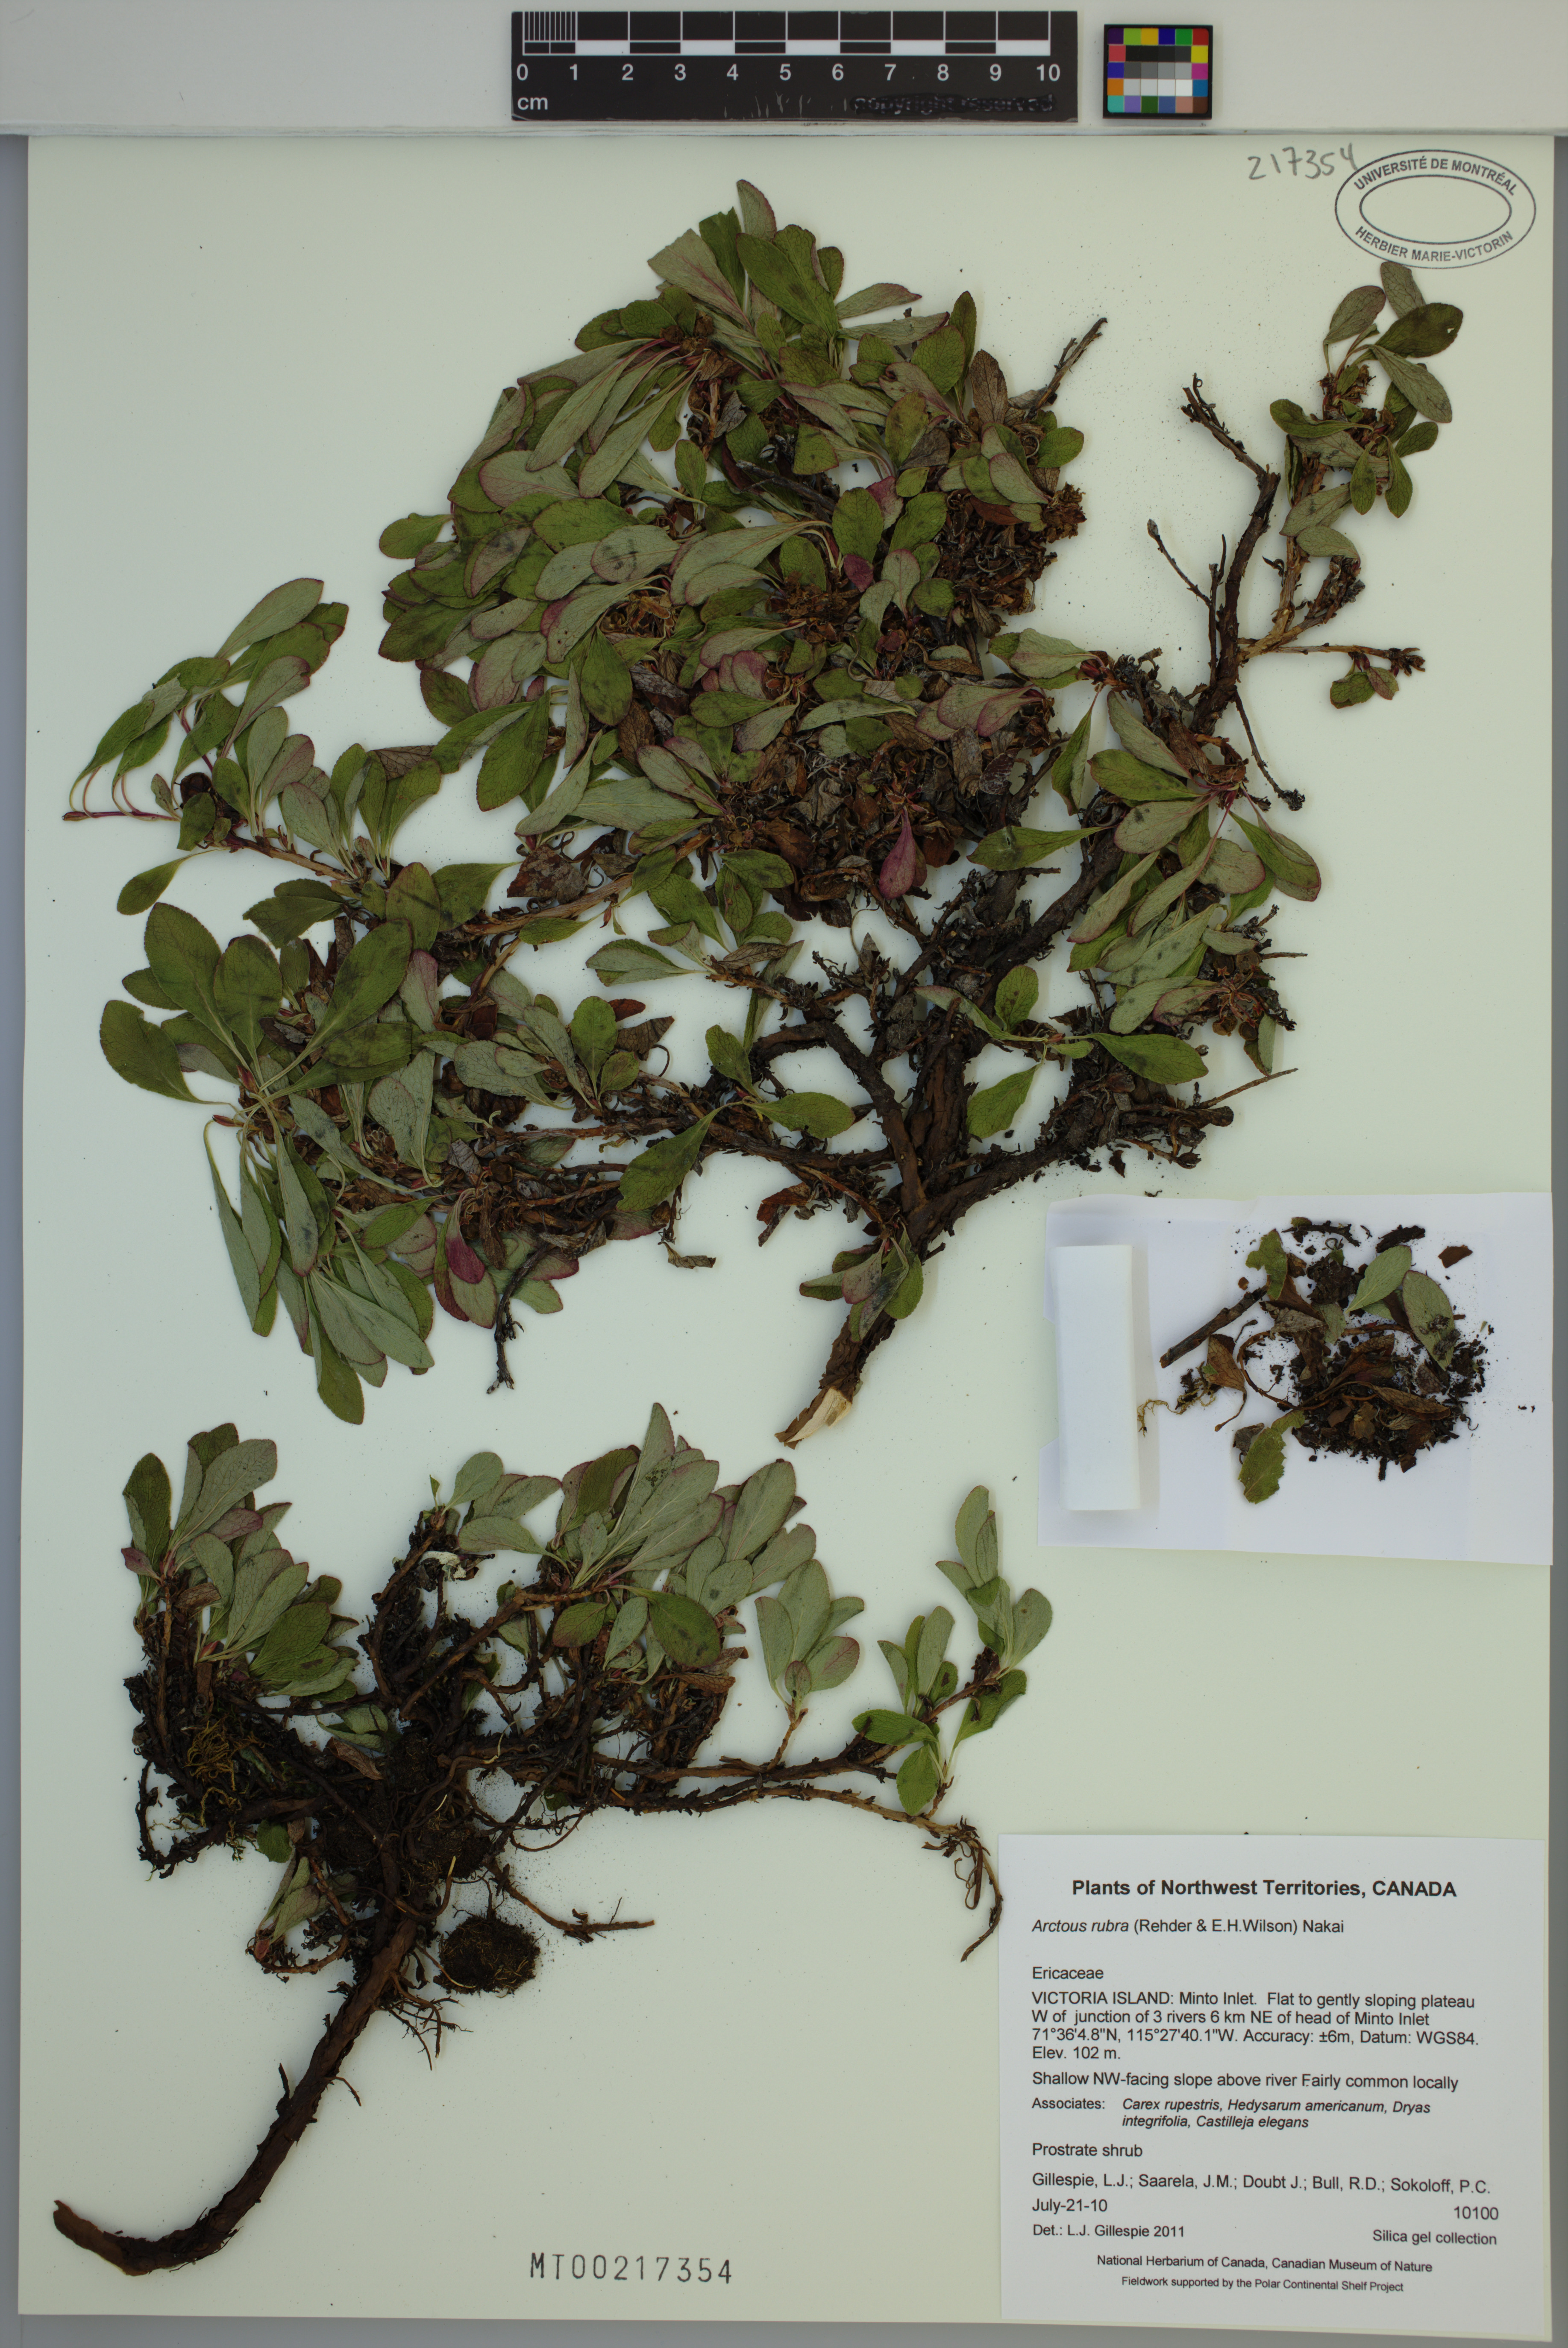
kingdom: Plantae
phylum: Tracheophyta
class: Magnoliopsida
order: Ericales
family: Ericaceae
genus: Arctostaphylos
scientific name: Arctostaphylos rubra
